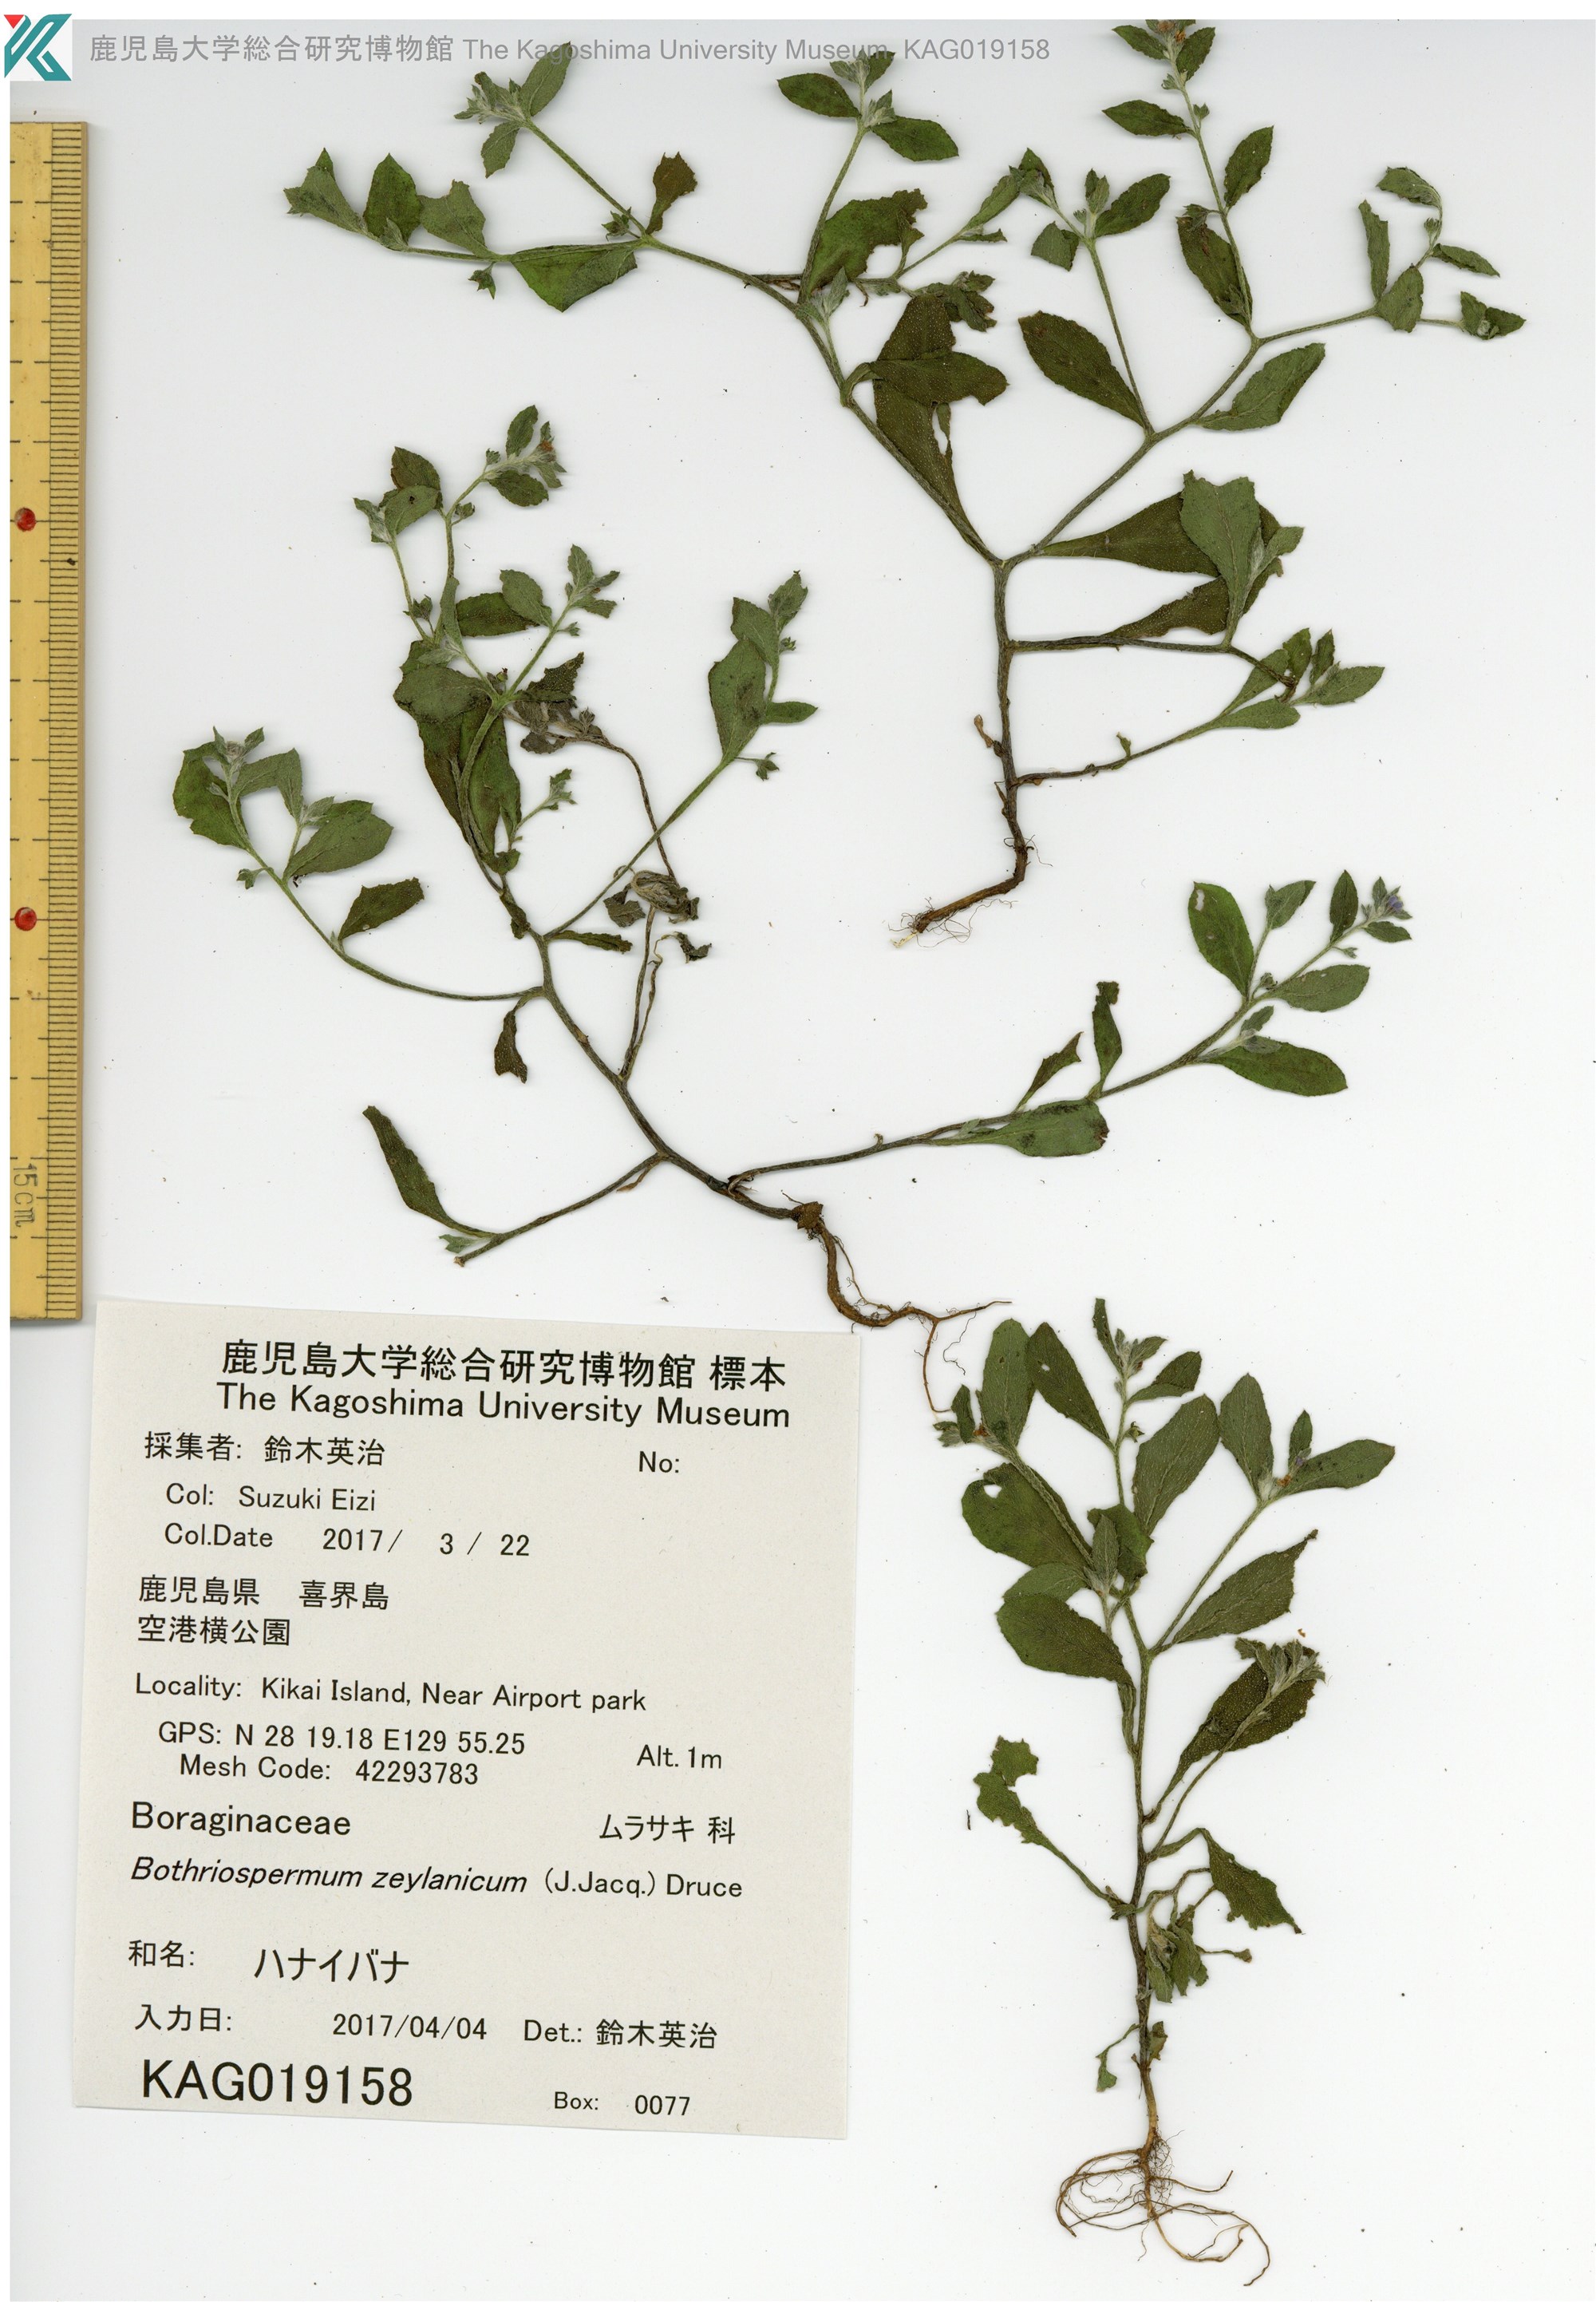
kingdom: Plantae
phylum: Tracheophyta
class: Magnoliopsida
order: Boraginales
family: Boraginaceae
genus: Bothriospermum
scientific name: Bothriospermum zeylanicum
